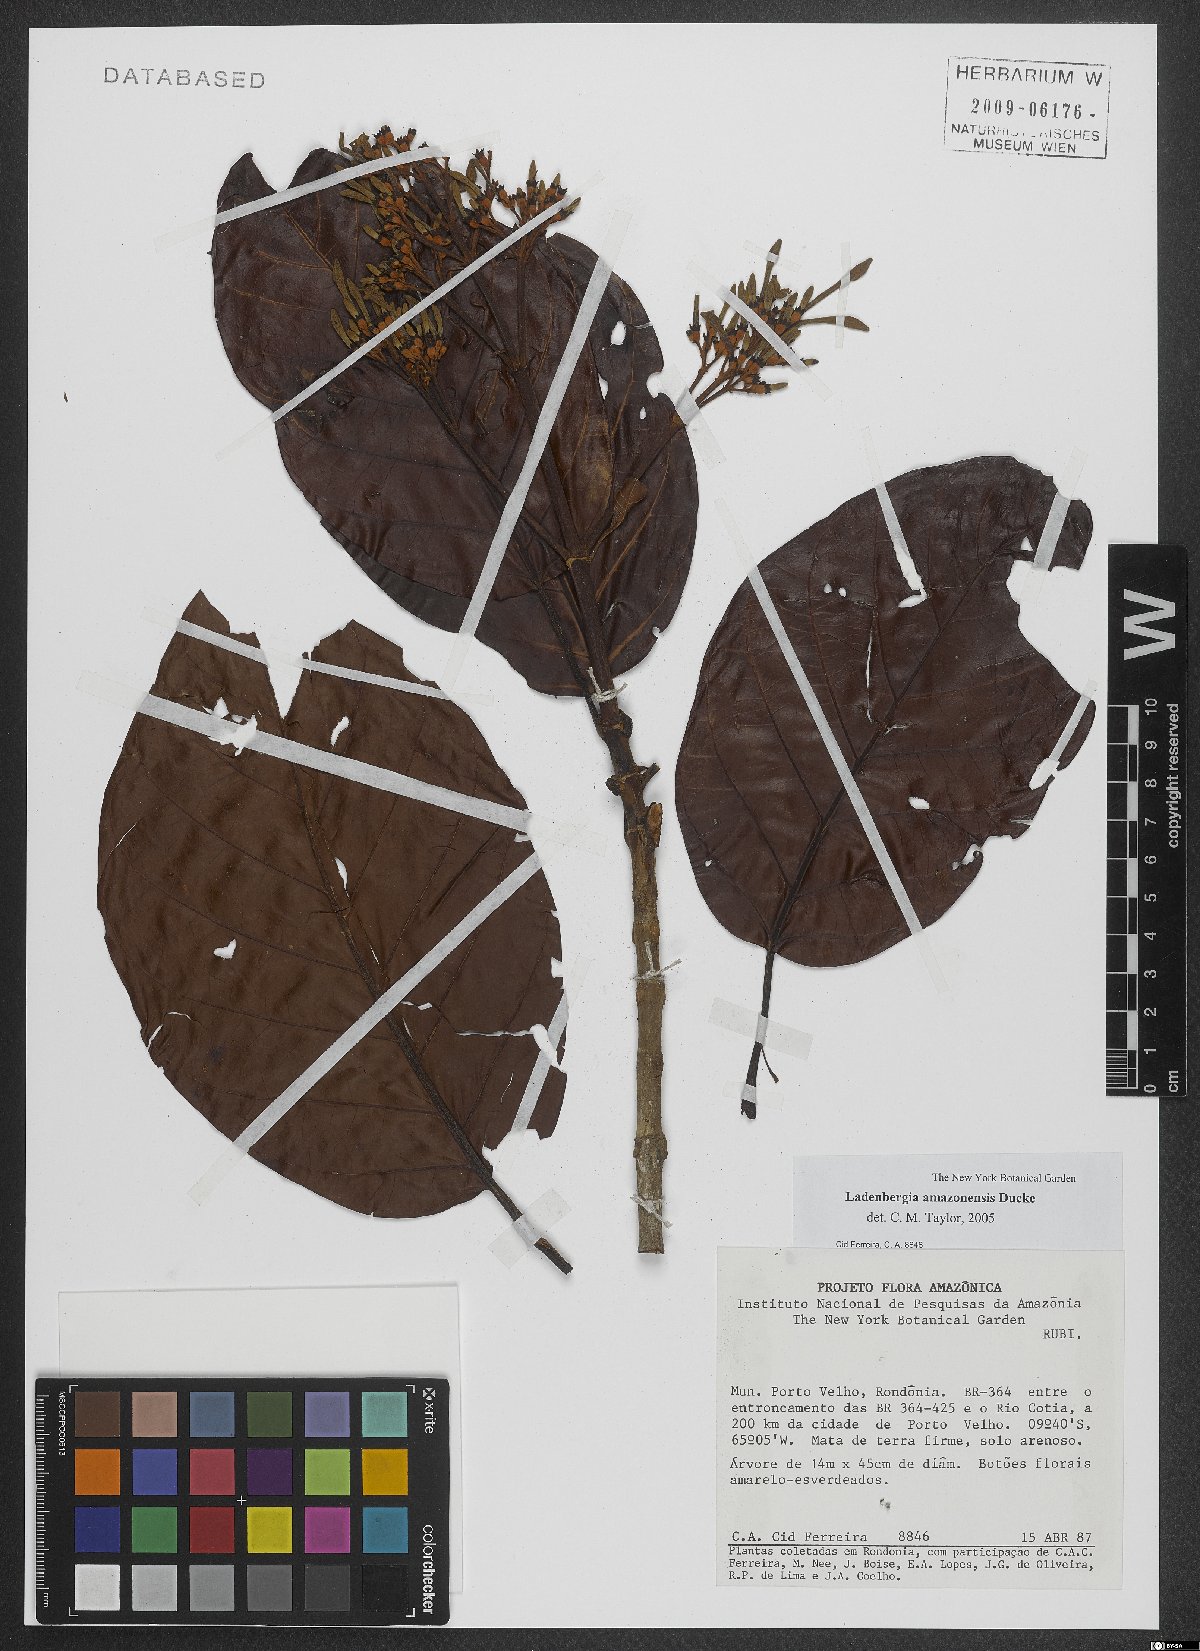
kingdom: Plantae
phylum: Tracheophyta
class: Magnoliopsida
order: Gentianales
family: Rubiaceae
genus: Ladenbergia
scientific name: Ladenbergia amazonensis
